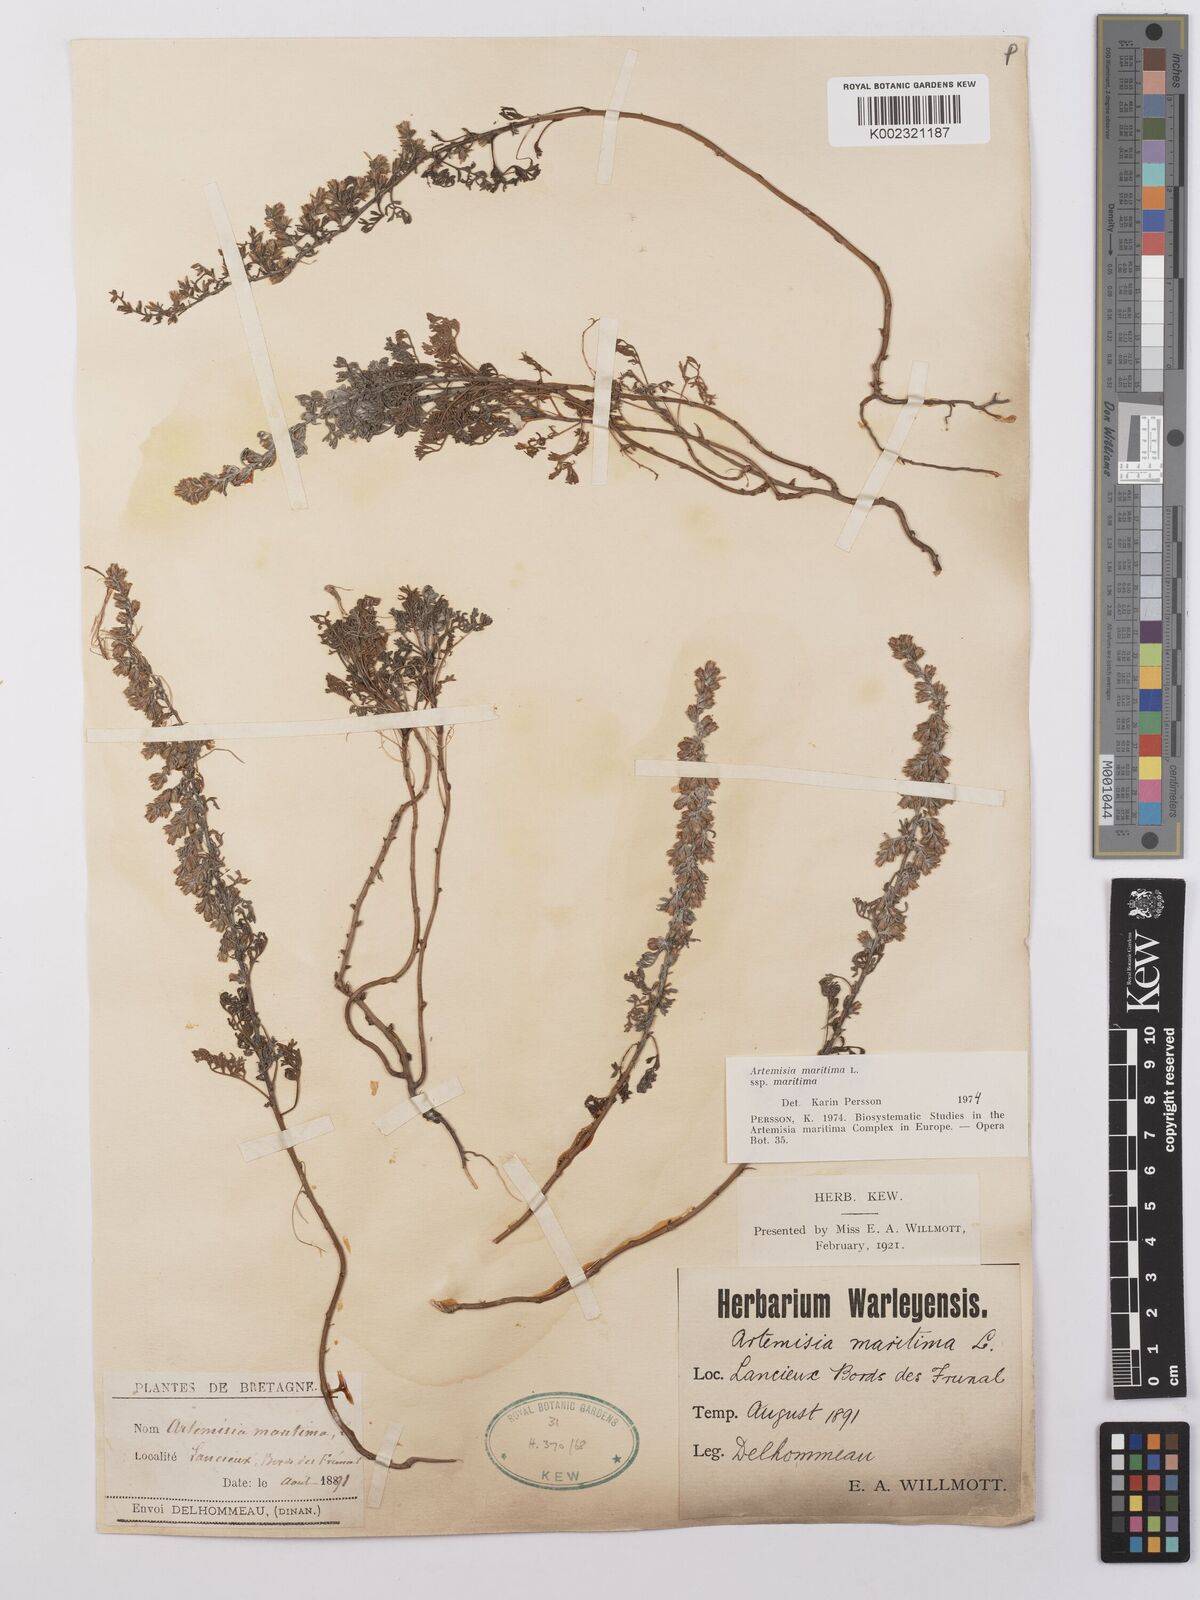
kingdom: Plantae
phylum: Tracheophyta
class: Magnoliopsida
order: Asterales
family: Asteraceae
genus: Artemisia
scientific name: Artemisia maritima
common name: Wormseed
